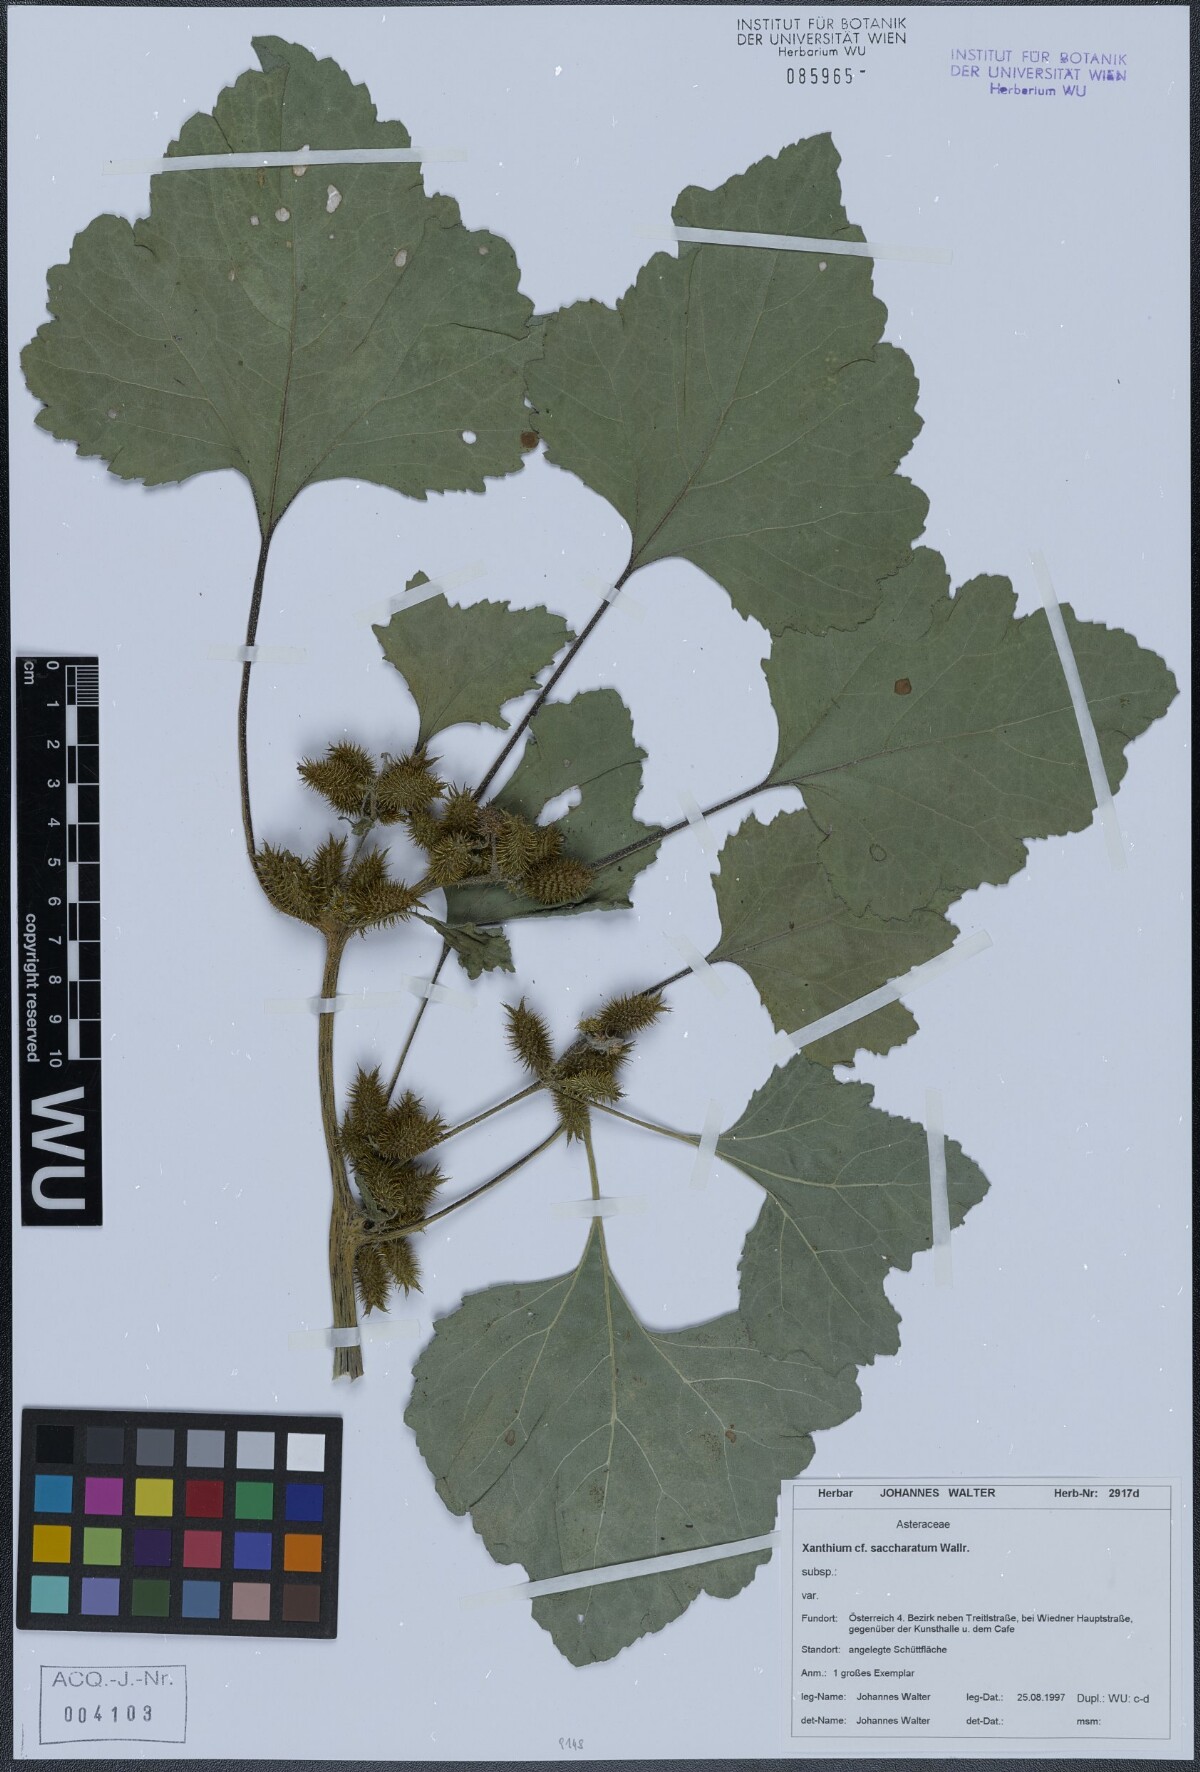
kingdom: Plantae
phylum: Tracheophyta
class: Magnoliopsida
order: Asterales
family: Asteraceae
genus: Xanthium
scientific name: Xanthium orientale
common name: Californian burr
